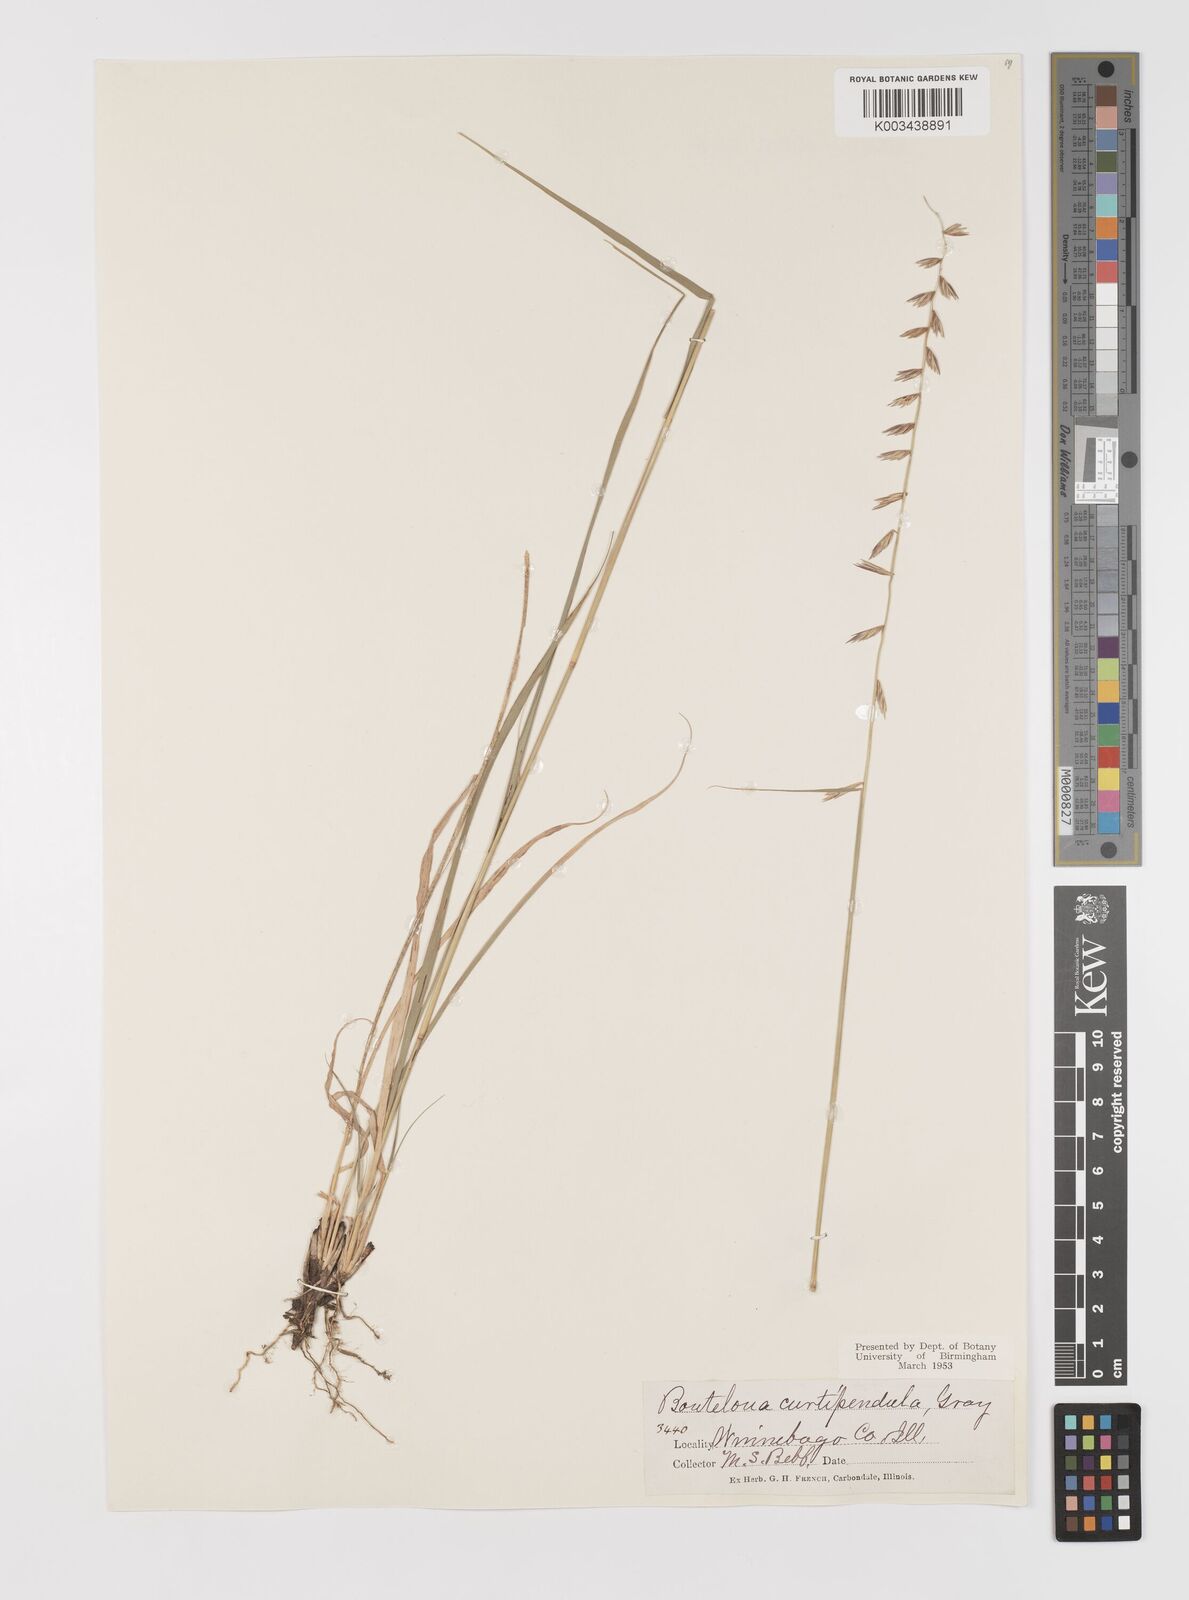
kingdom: Plantae
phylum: Tracheophyta
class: Liliopsida
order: Poales
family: Poaceae
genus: Bouteloua
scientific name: Bouteloua curtipendula
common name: Side-oats grama
